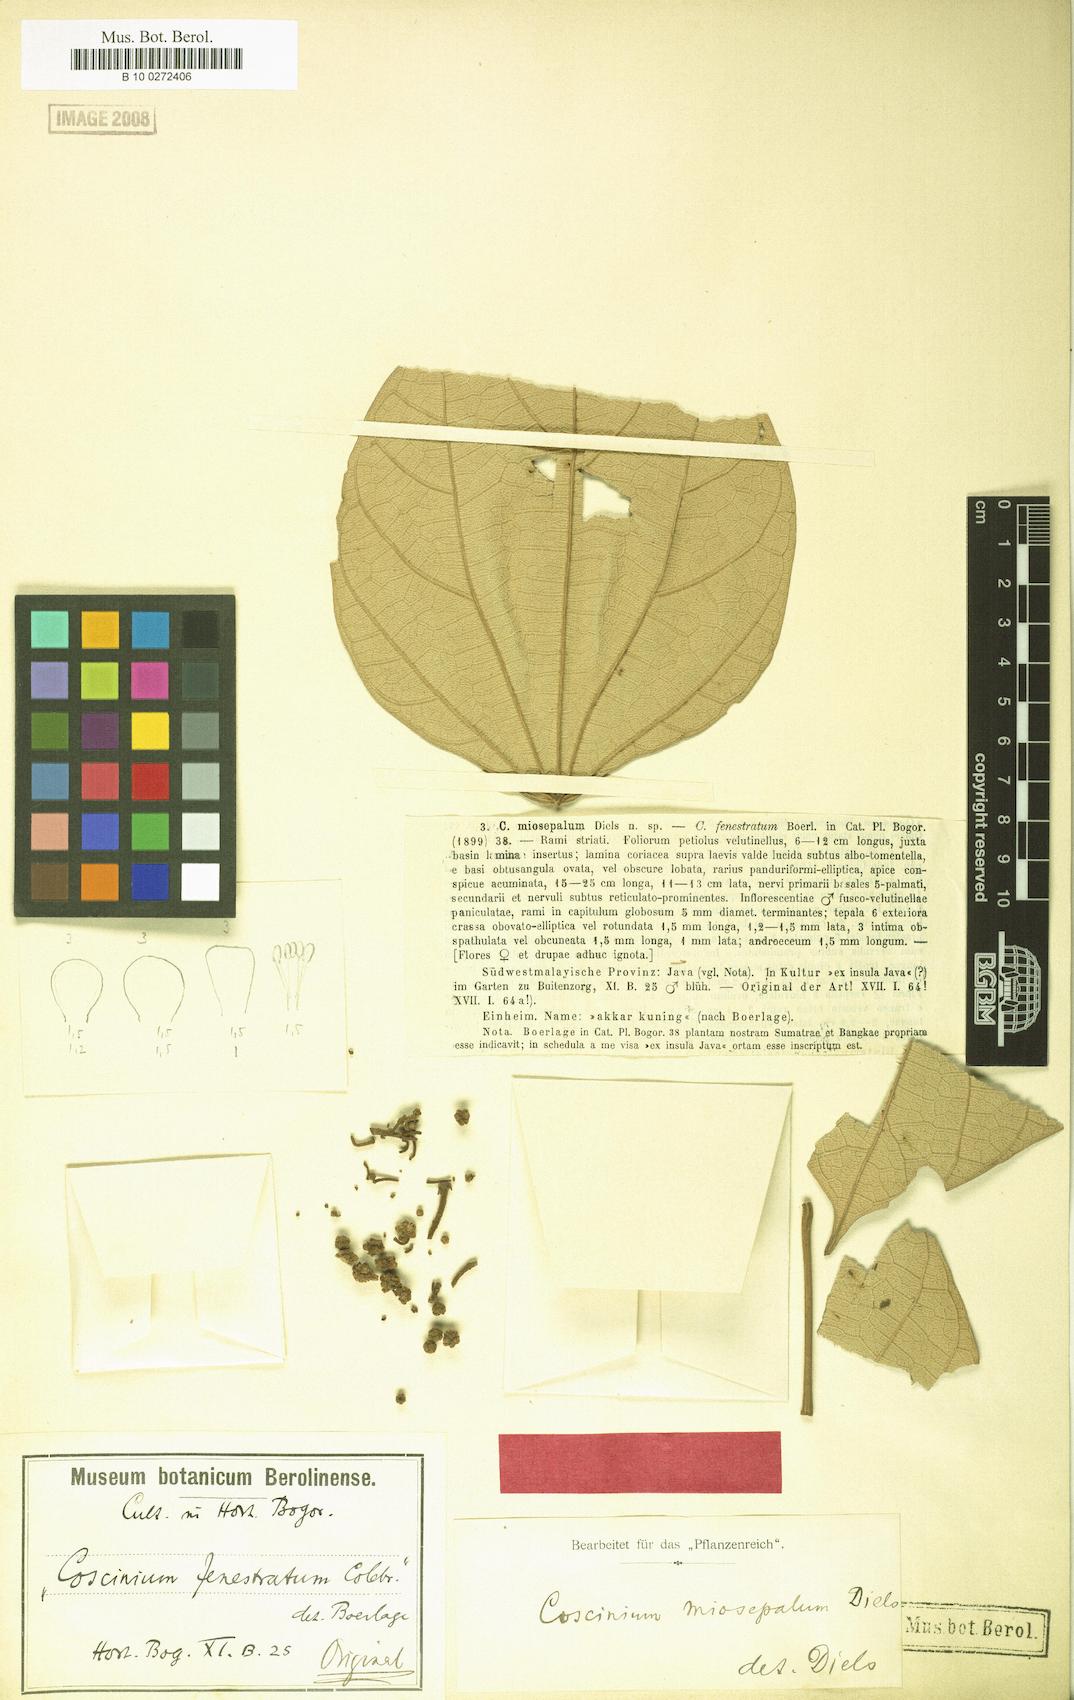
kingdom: Plantae
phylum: Tracheophyta
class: Magnoliopsida
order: Ranunculales
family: Menispermaceae
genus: Coscinium
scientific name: Coscinium fenestratum
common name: False calumba
